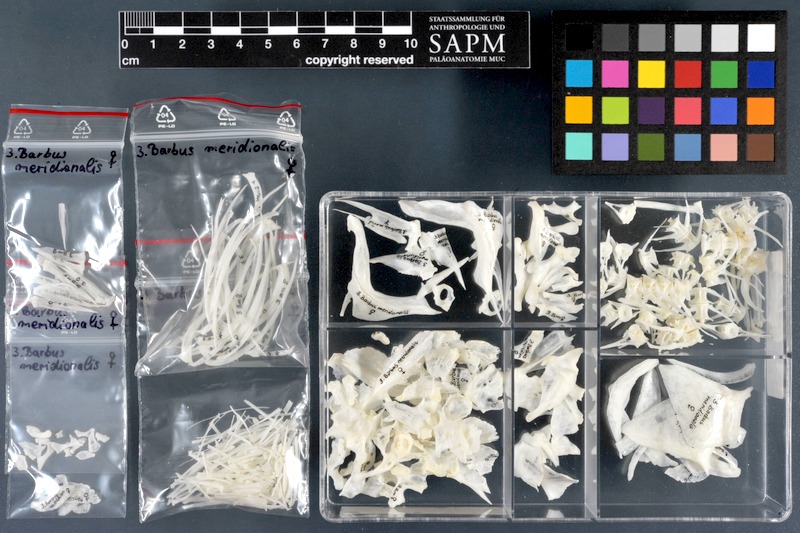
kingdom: Animalia
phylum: Chordata
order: Cypriniformes
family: Cyprinidae
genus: Barbus
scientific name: Barbus meridionalis
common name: Mediterranean barbel
